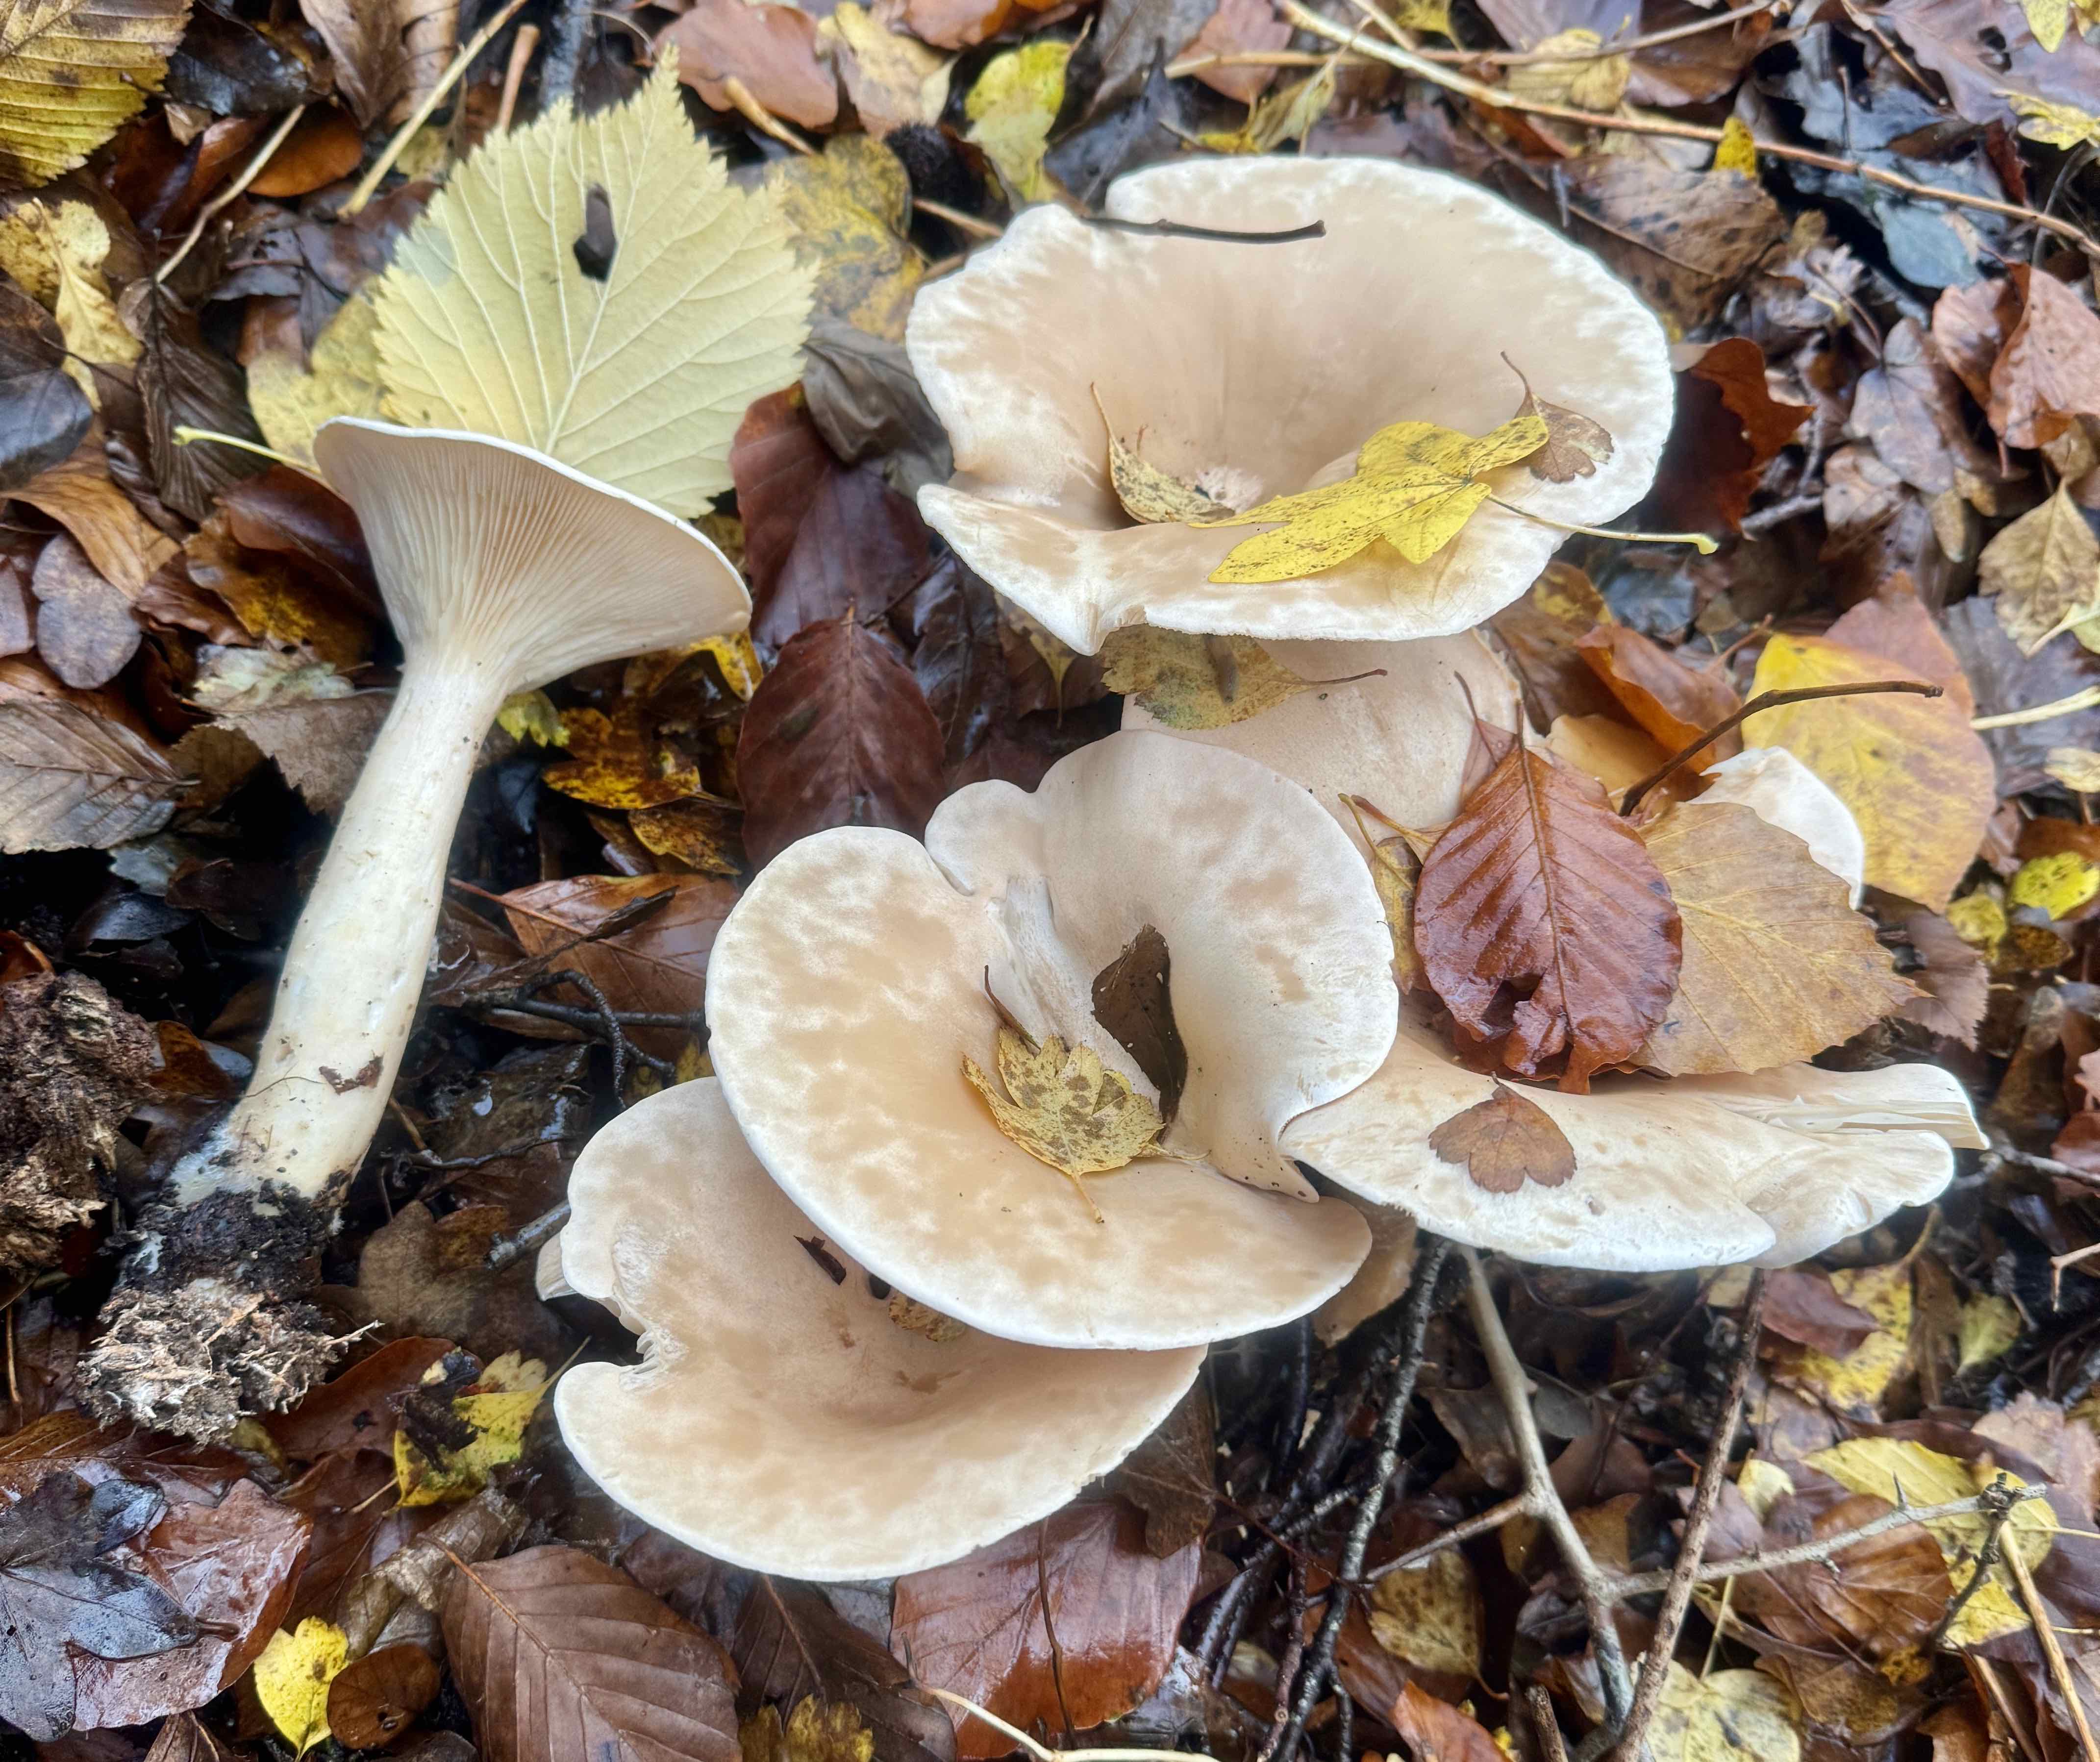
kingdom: Fungi
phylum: Basidiomycota
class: Agaricomycetes
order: Agaricales
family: Tricholomataceae
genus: Infundibulicybe
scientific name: Infundibulicybe geotropa
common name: stor tragthat
